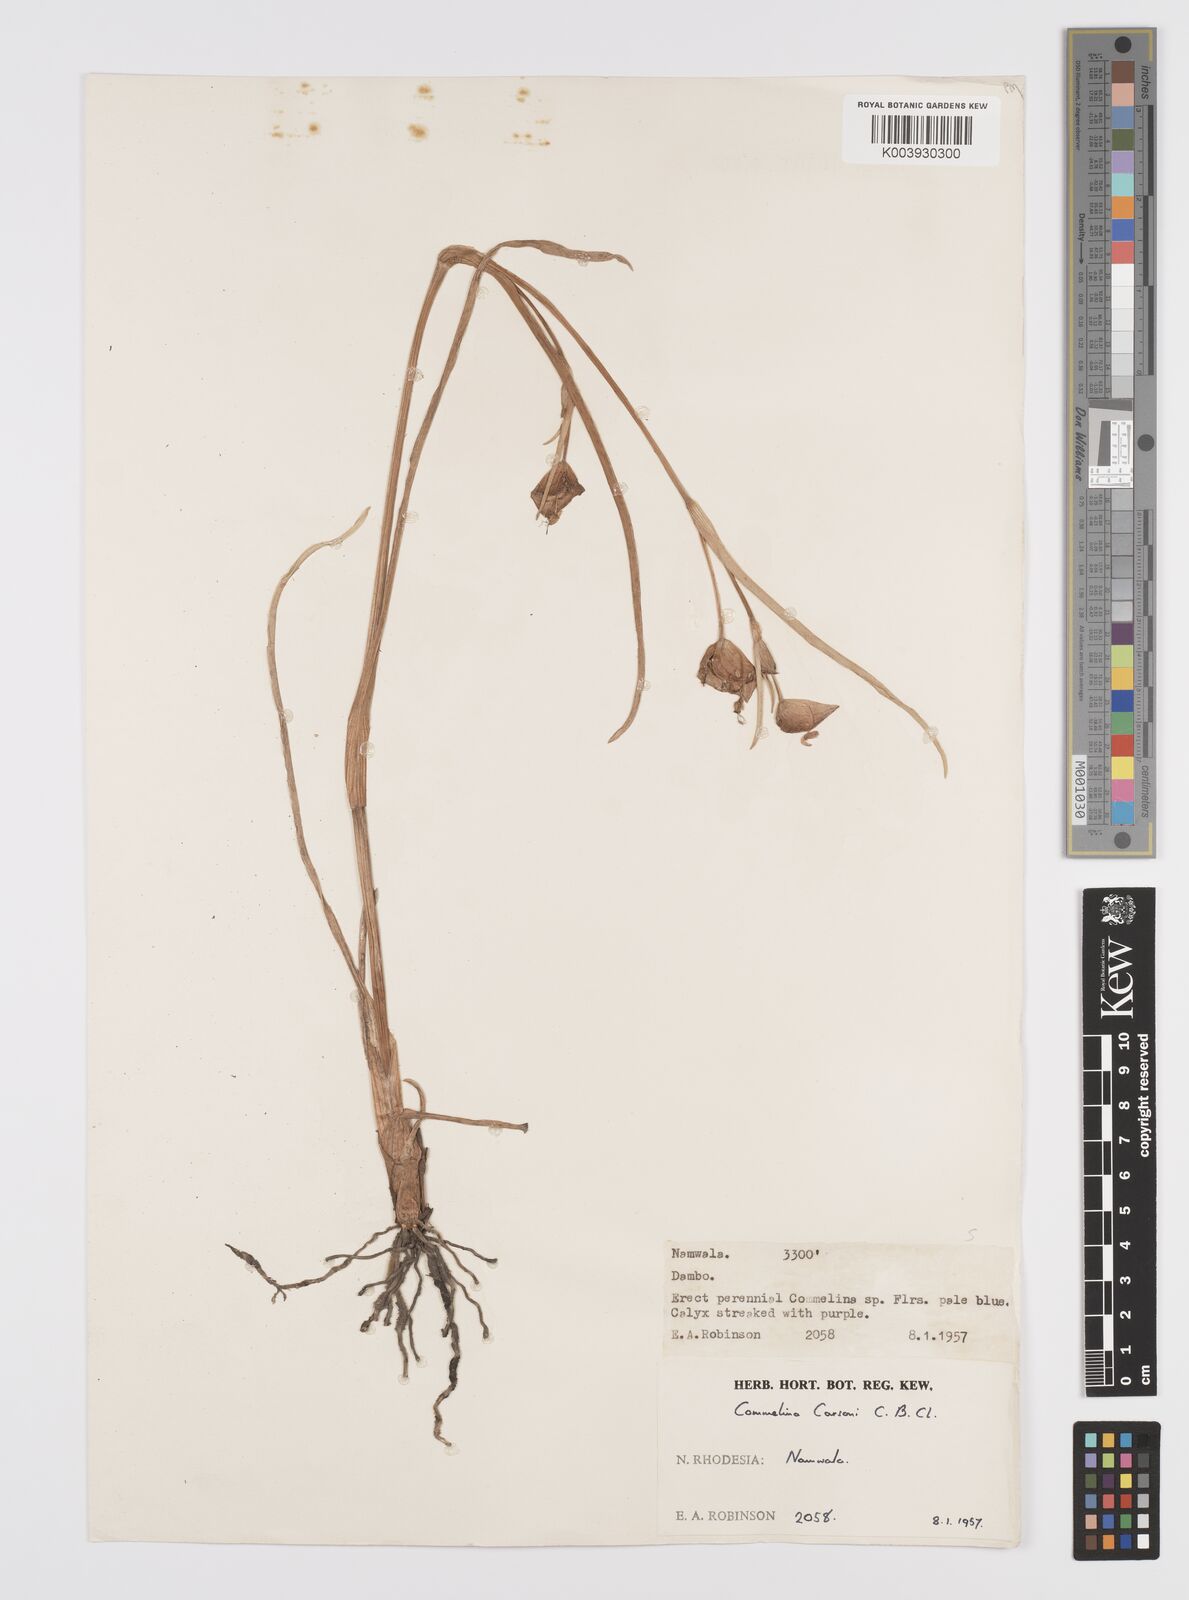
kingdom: Plantae
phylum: Tracheophyta
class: Liliopsida
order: Commelinales
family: Commelinaceae
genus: Commelina
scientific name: Commelina schweinfurthii
